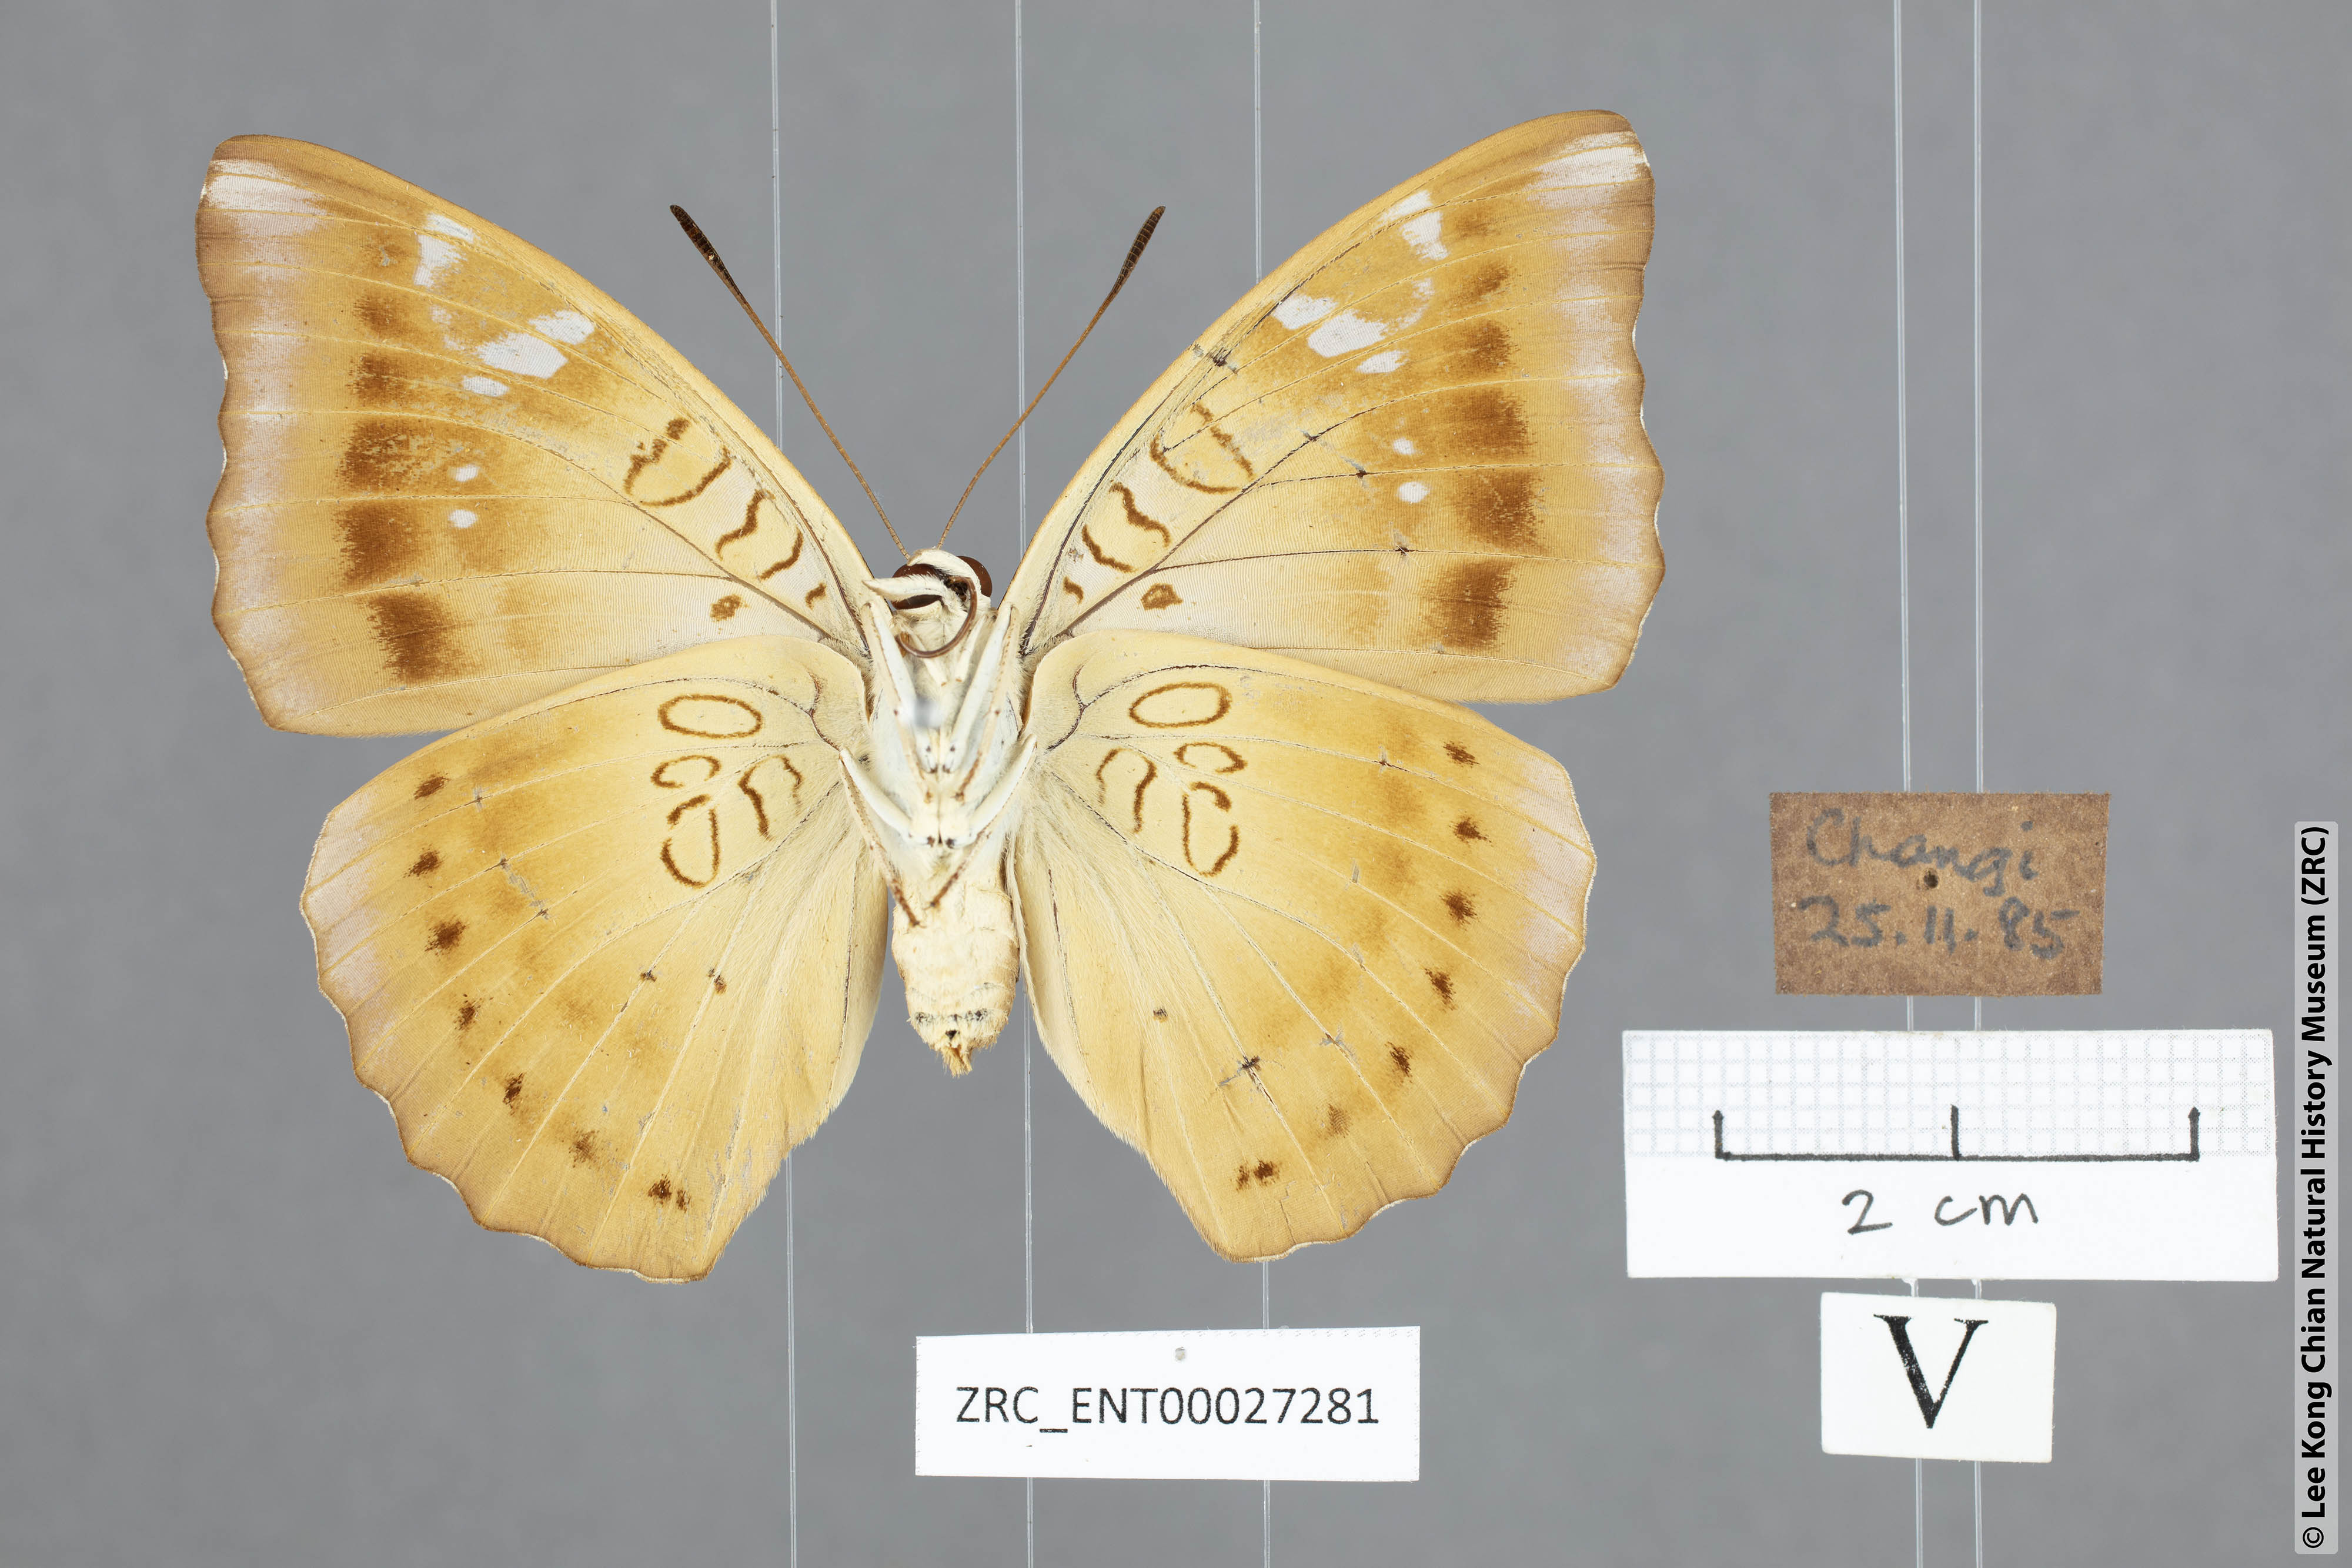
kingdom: Animalia
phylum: Arthropoda
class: Insecta
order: Lepidoptera
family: Nymphalidae
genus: Tanaecia
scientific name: Tanaecia godartii
